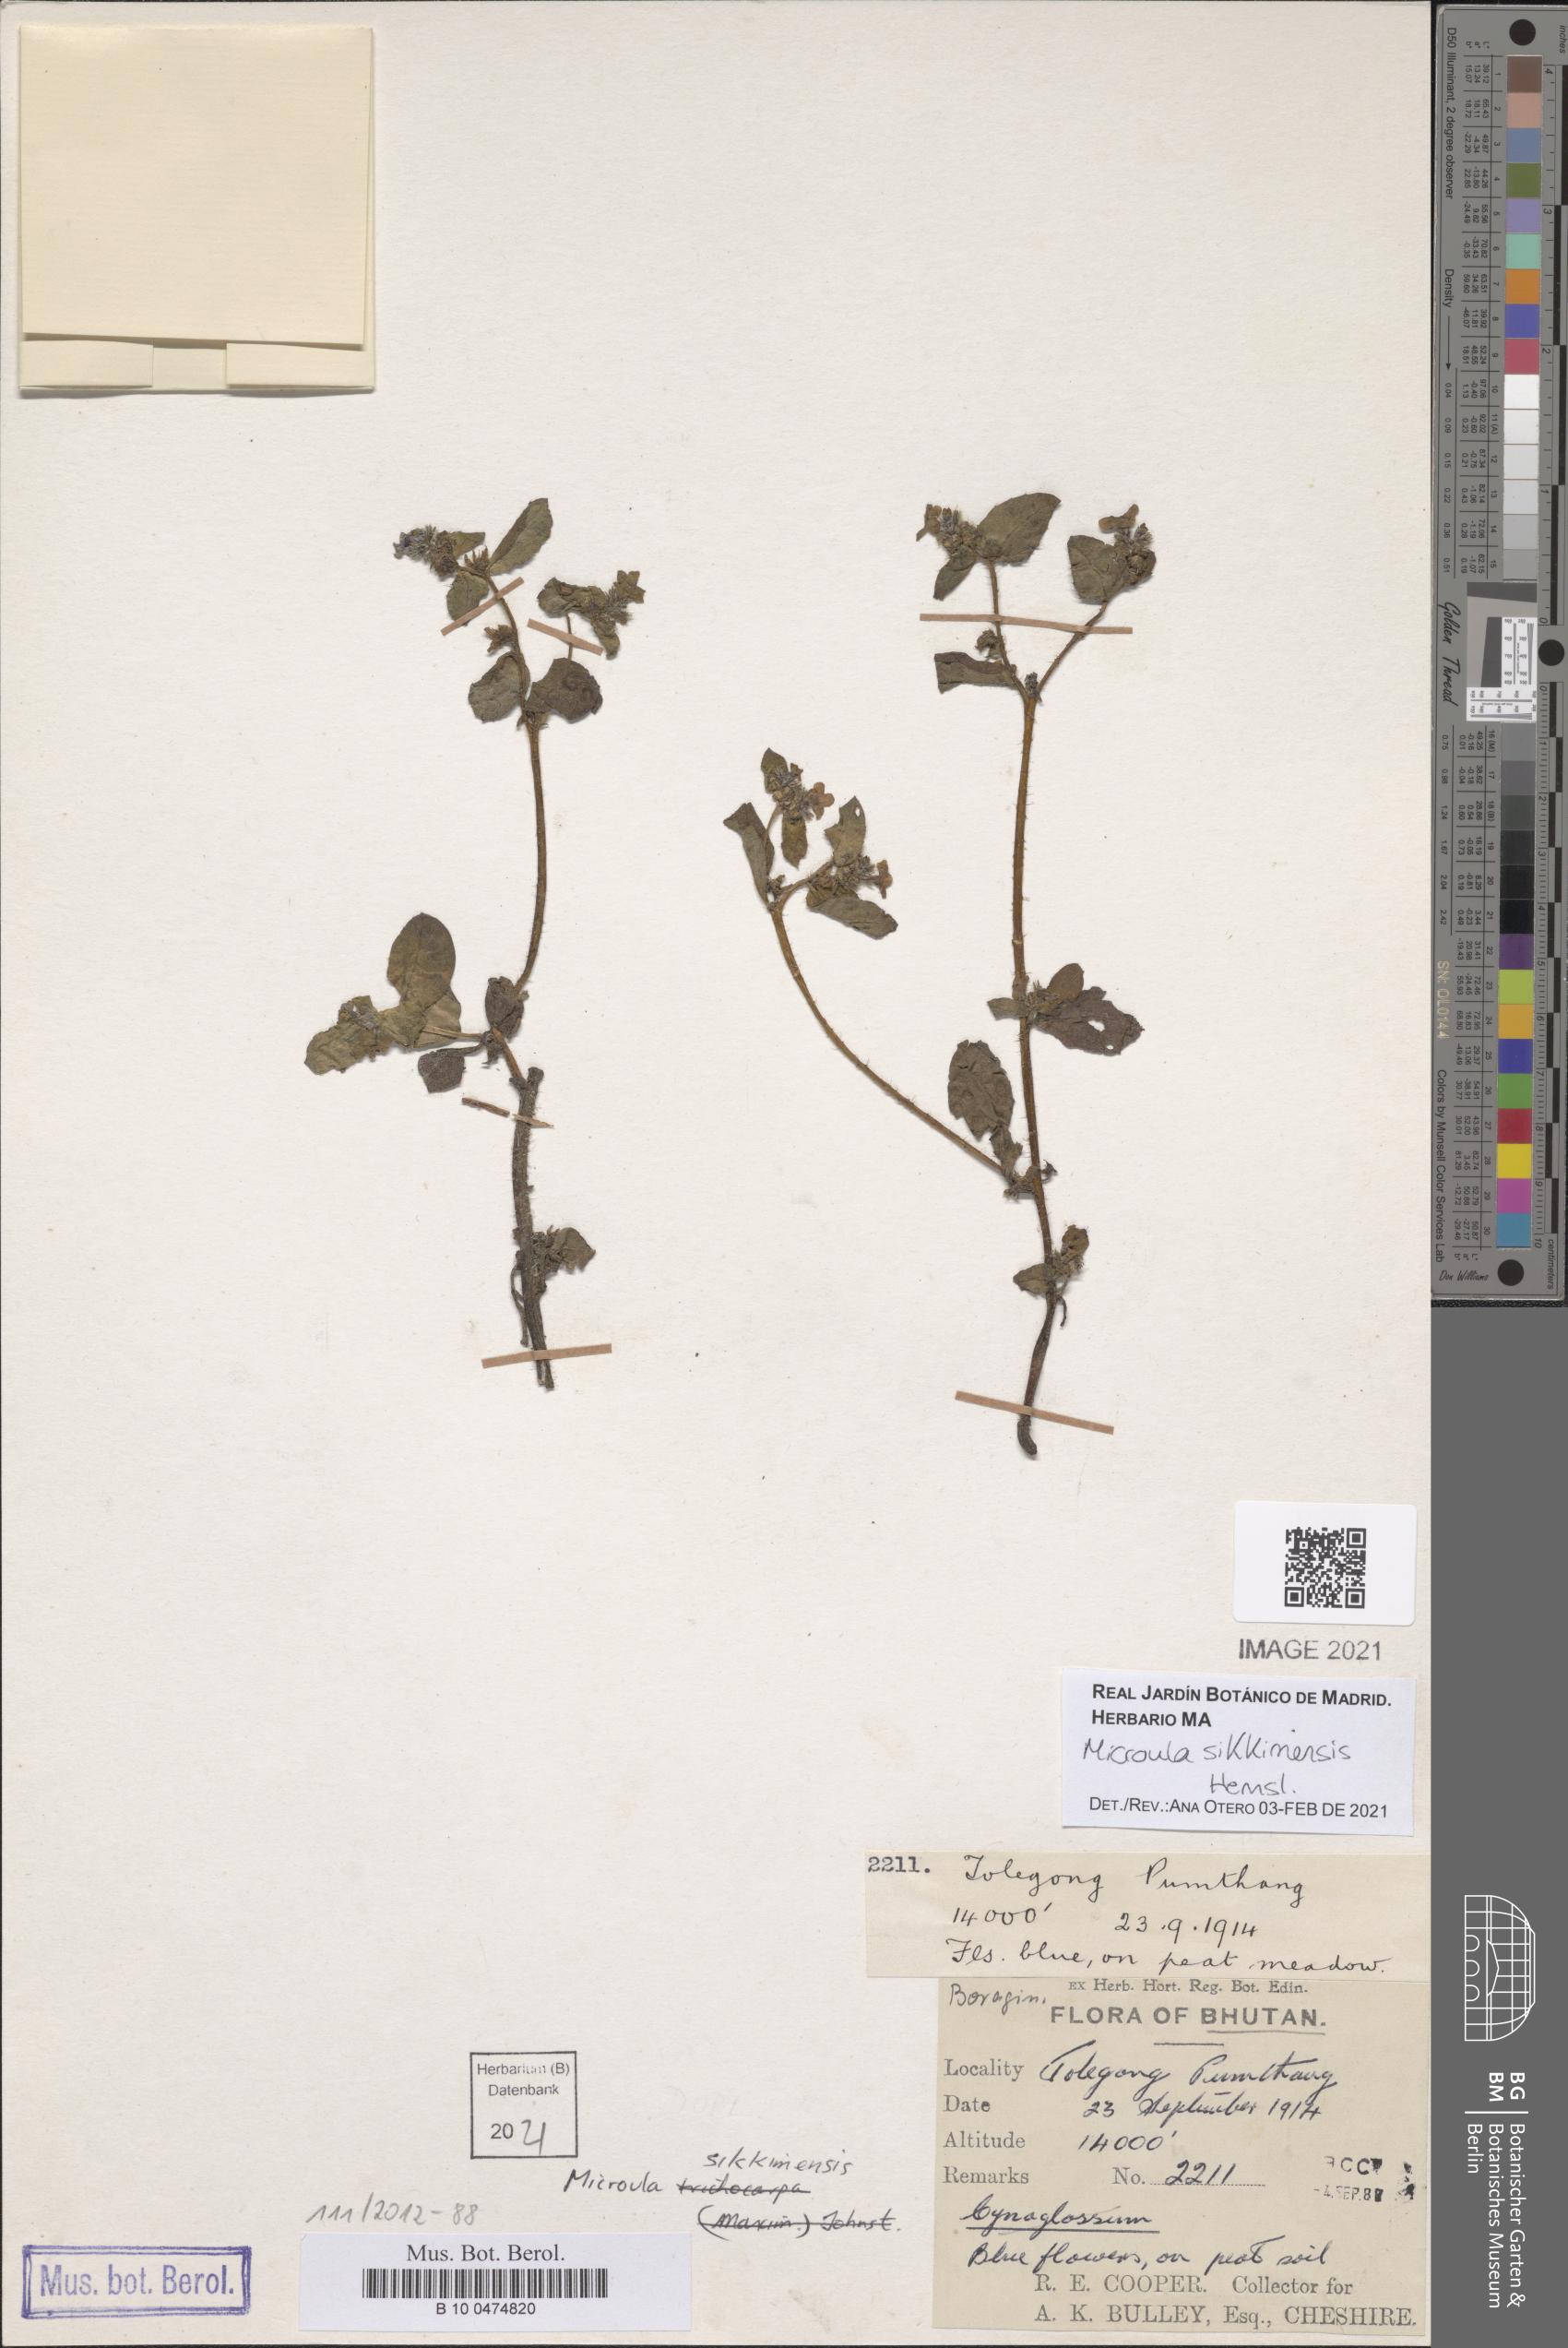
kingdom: Plantae
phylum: Tracheophyta
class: Magnoliopsida
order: Boraginales
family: Boraginaceae
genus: Microula
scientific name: Microula sikkimensis
